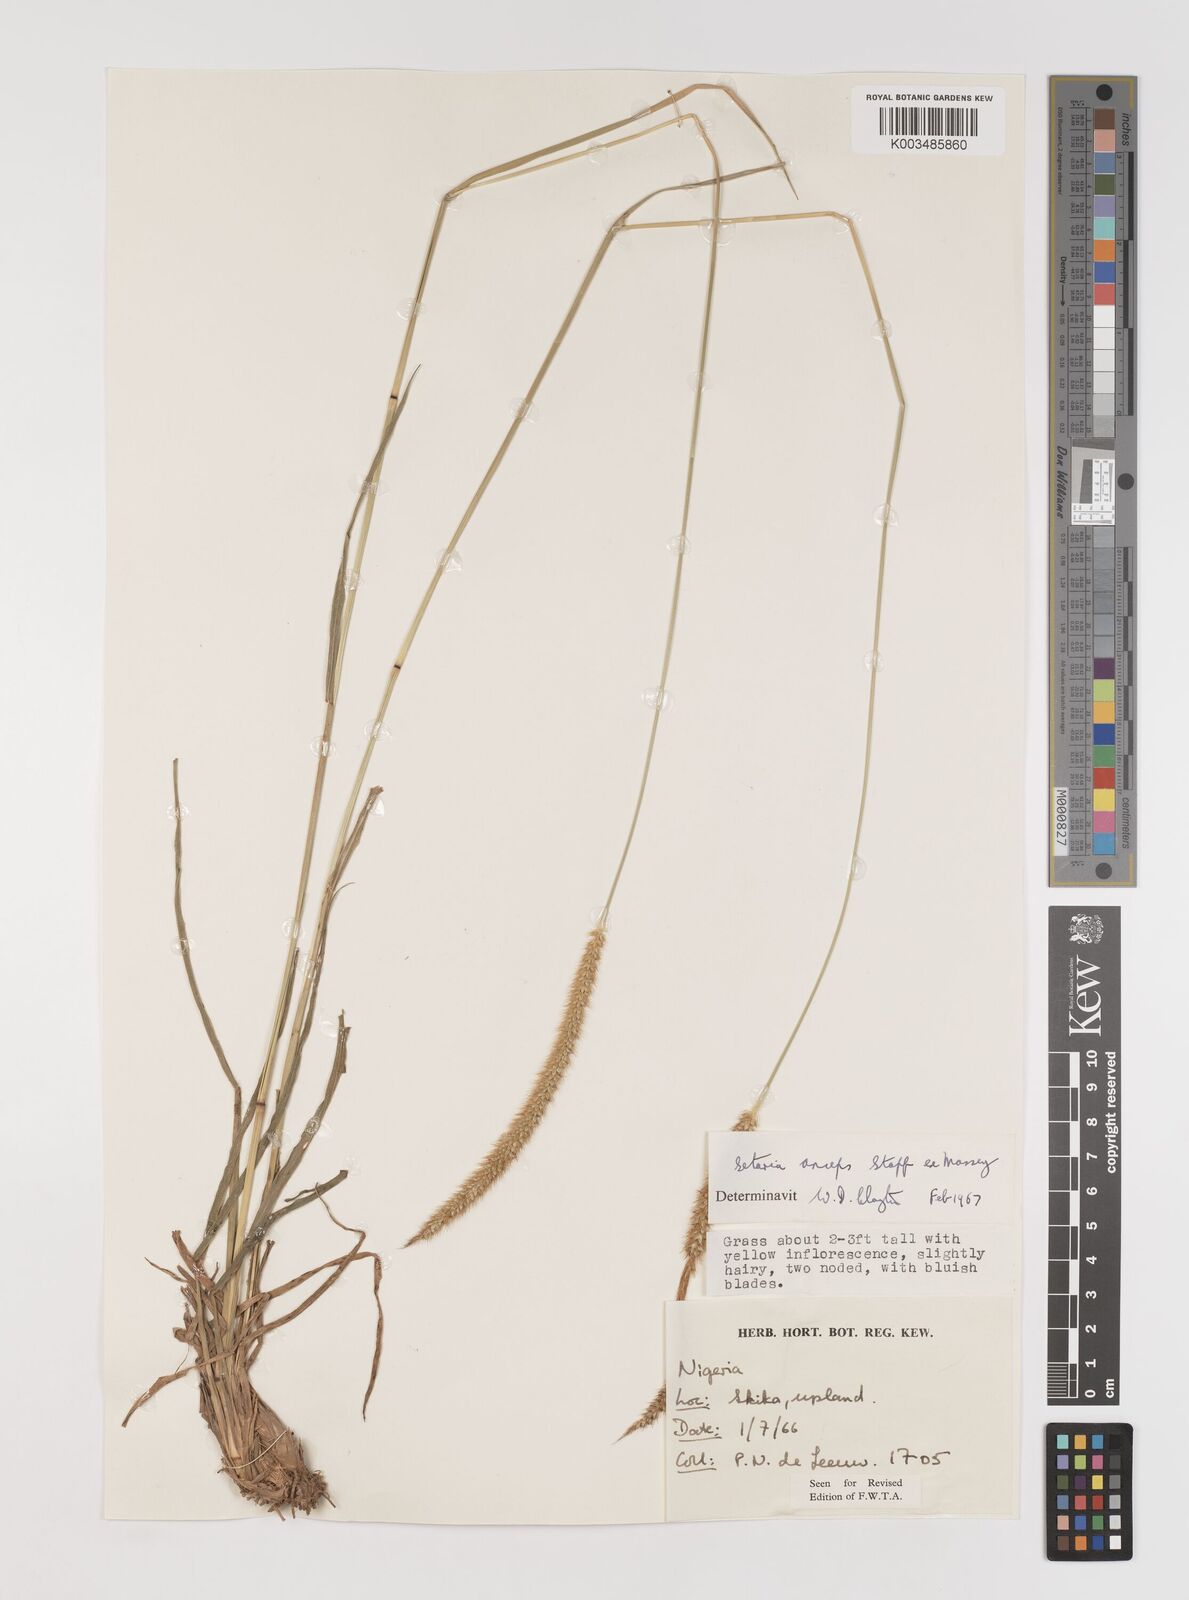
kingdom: Plantae
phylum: Tracheophyta
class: Liliopsida
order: Poales
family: Poaceae
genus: Setaria
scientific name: Setaria sphacelata
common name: African bristlegrass
